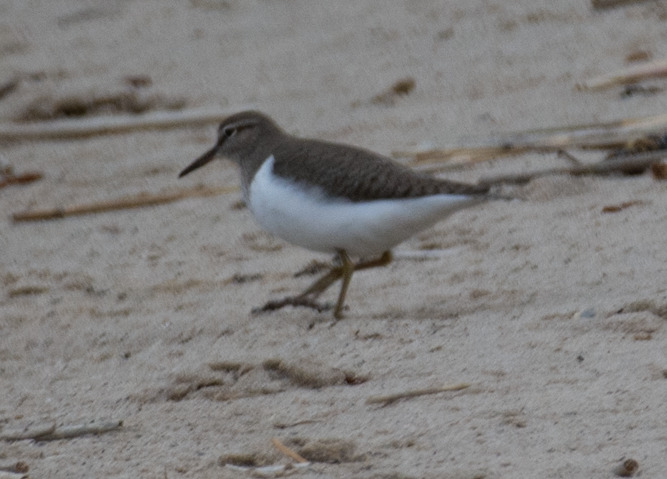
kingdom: Animalia
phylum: Chordata
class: Aves
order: Charadriiformes
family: Scolopacidae
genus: Actitis
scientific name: Actitis hypoleucos
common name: Mudderklire
